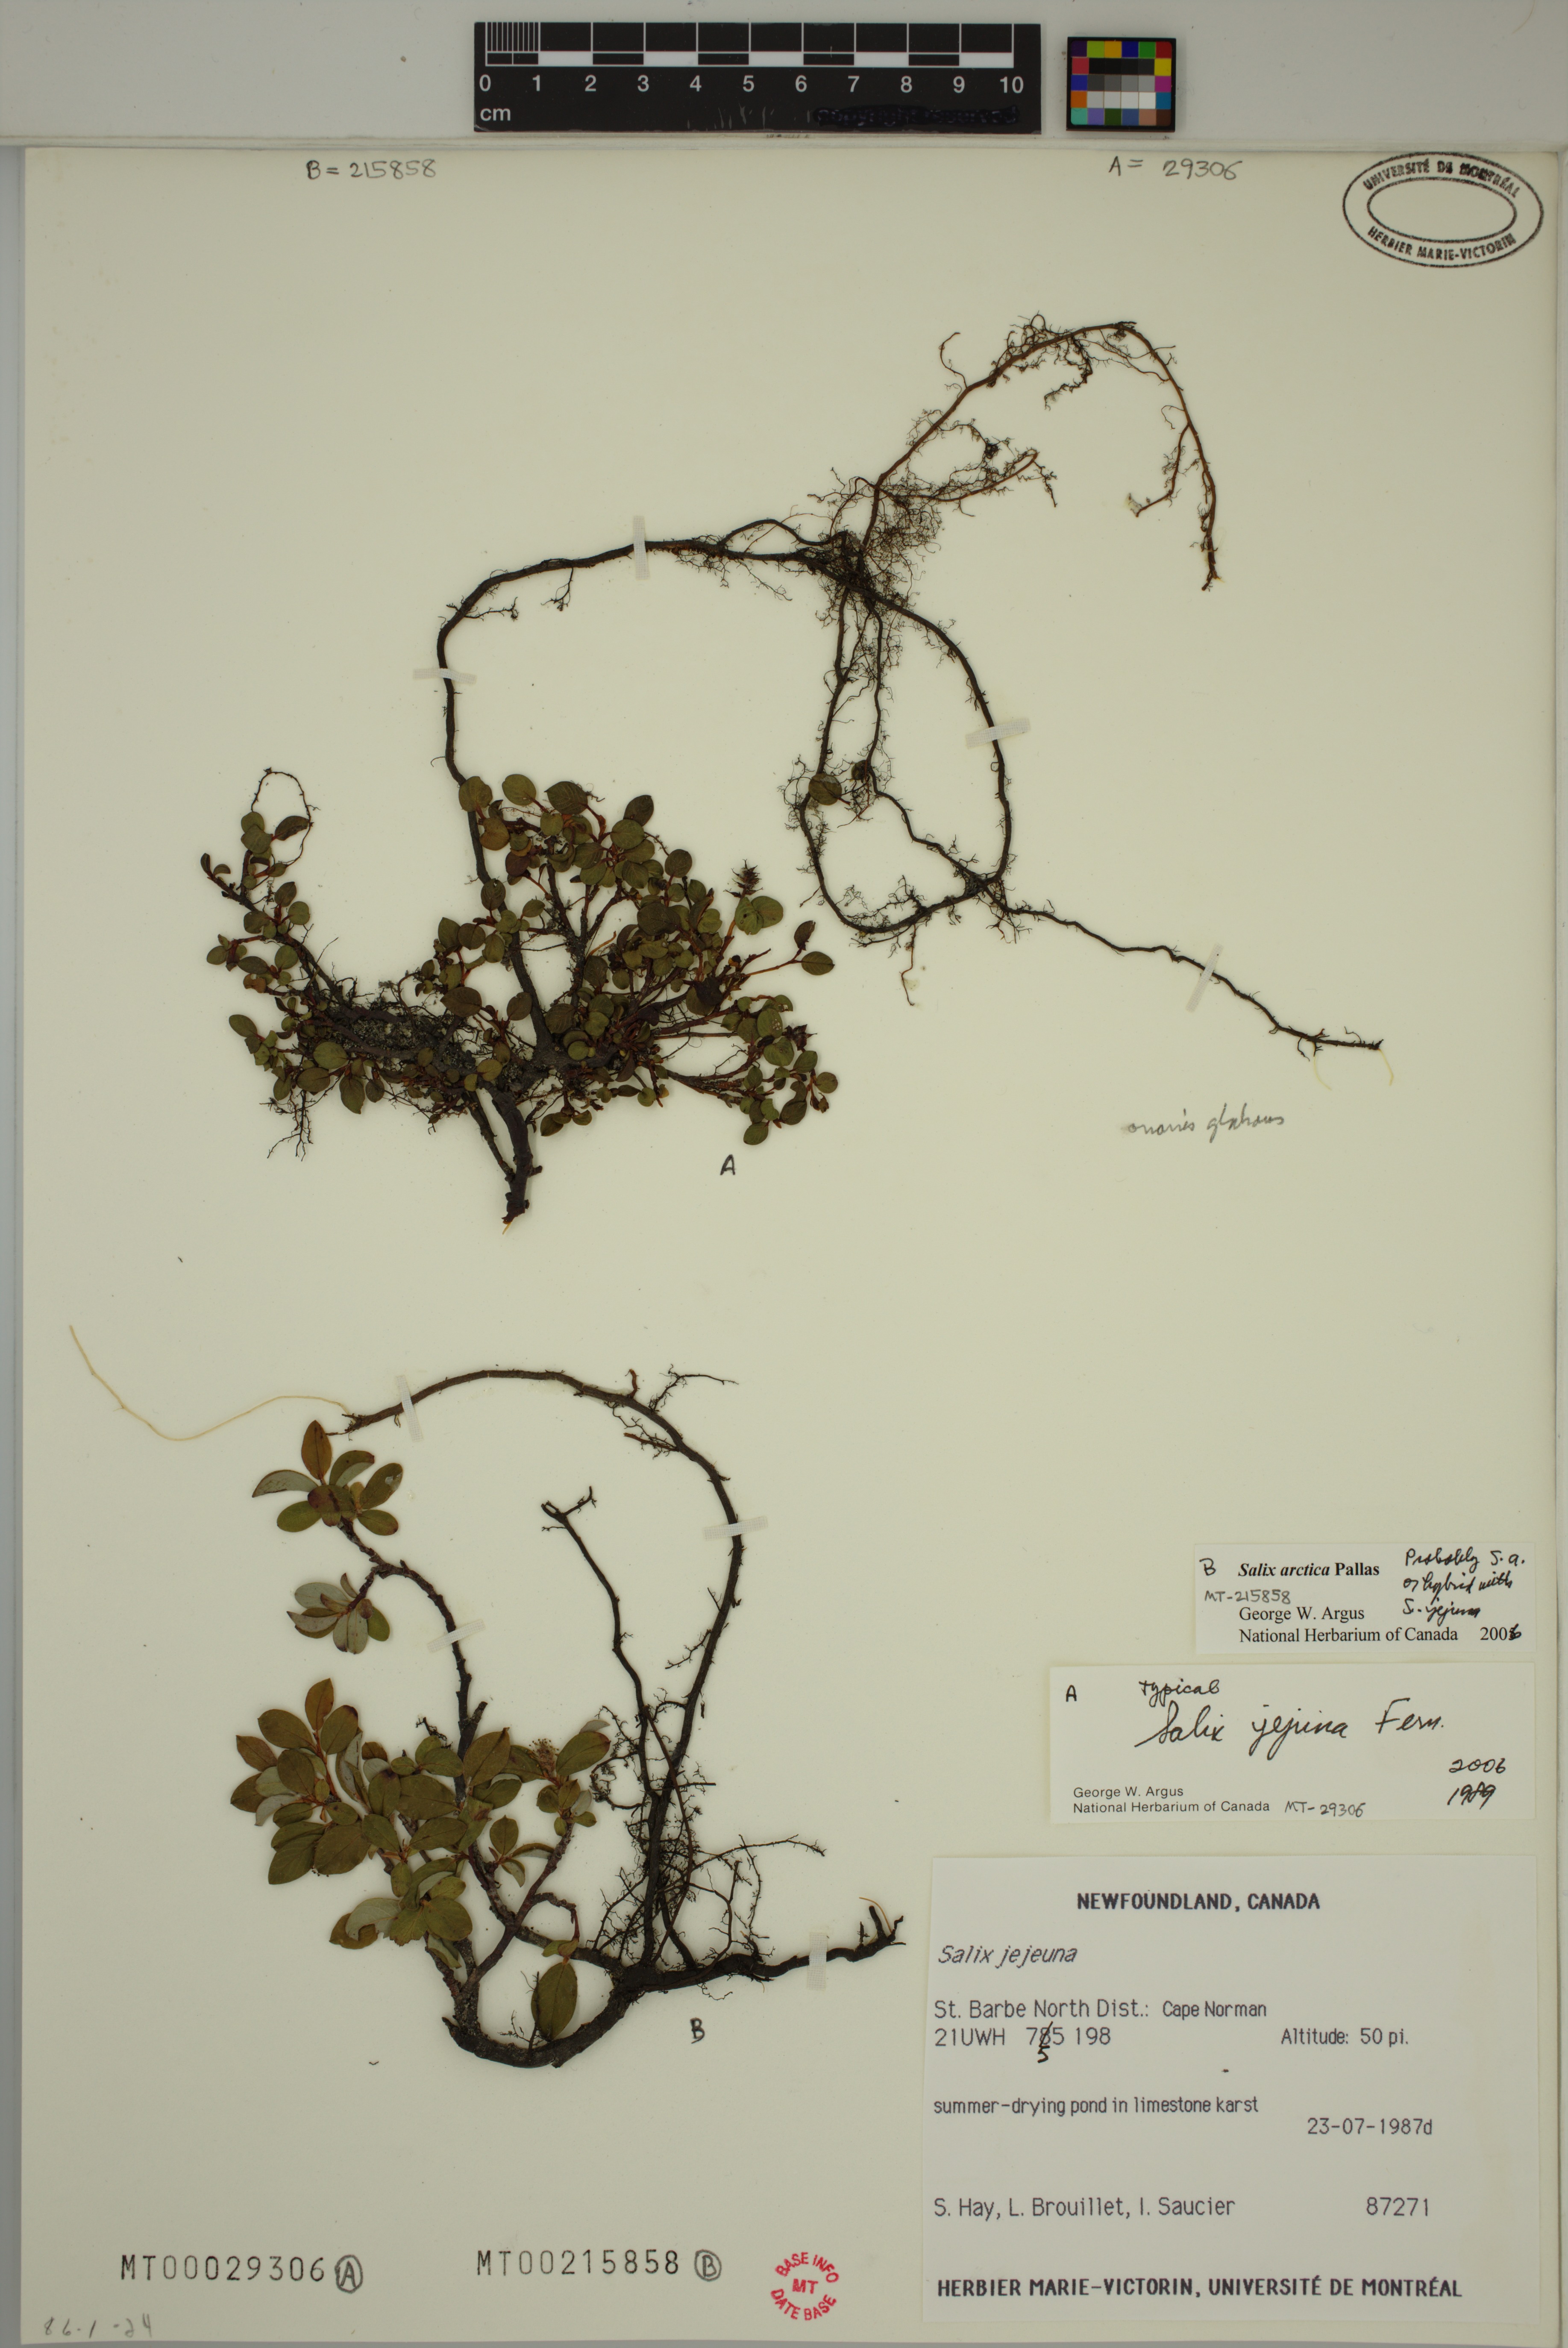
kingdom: Plantae
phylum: Tracheophyta
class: Magnoliopsida
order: Malpighiales
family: Salicaceae
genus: Salix
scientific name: Salix jejuna
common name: Belle isle dwarf willow
